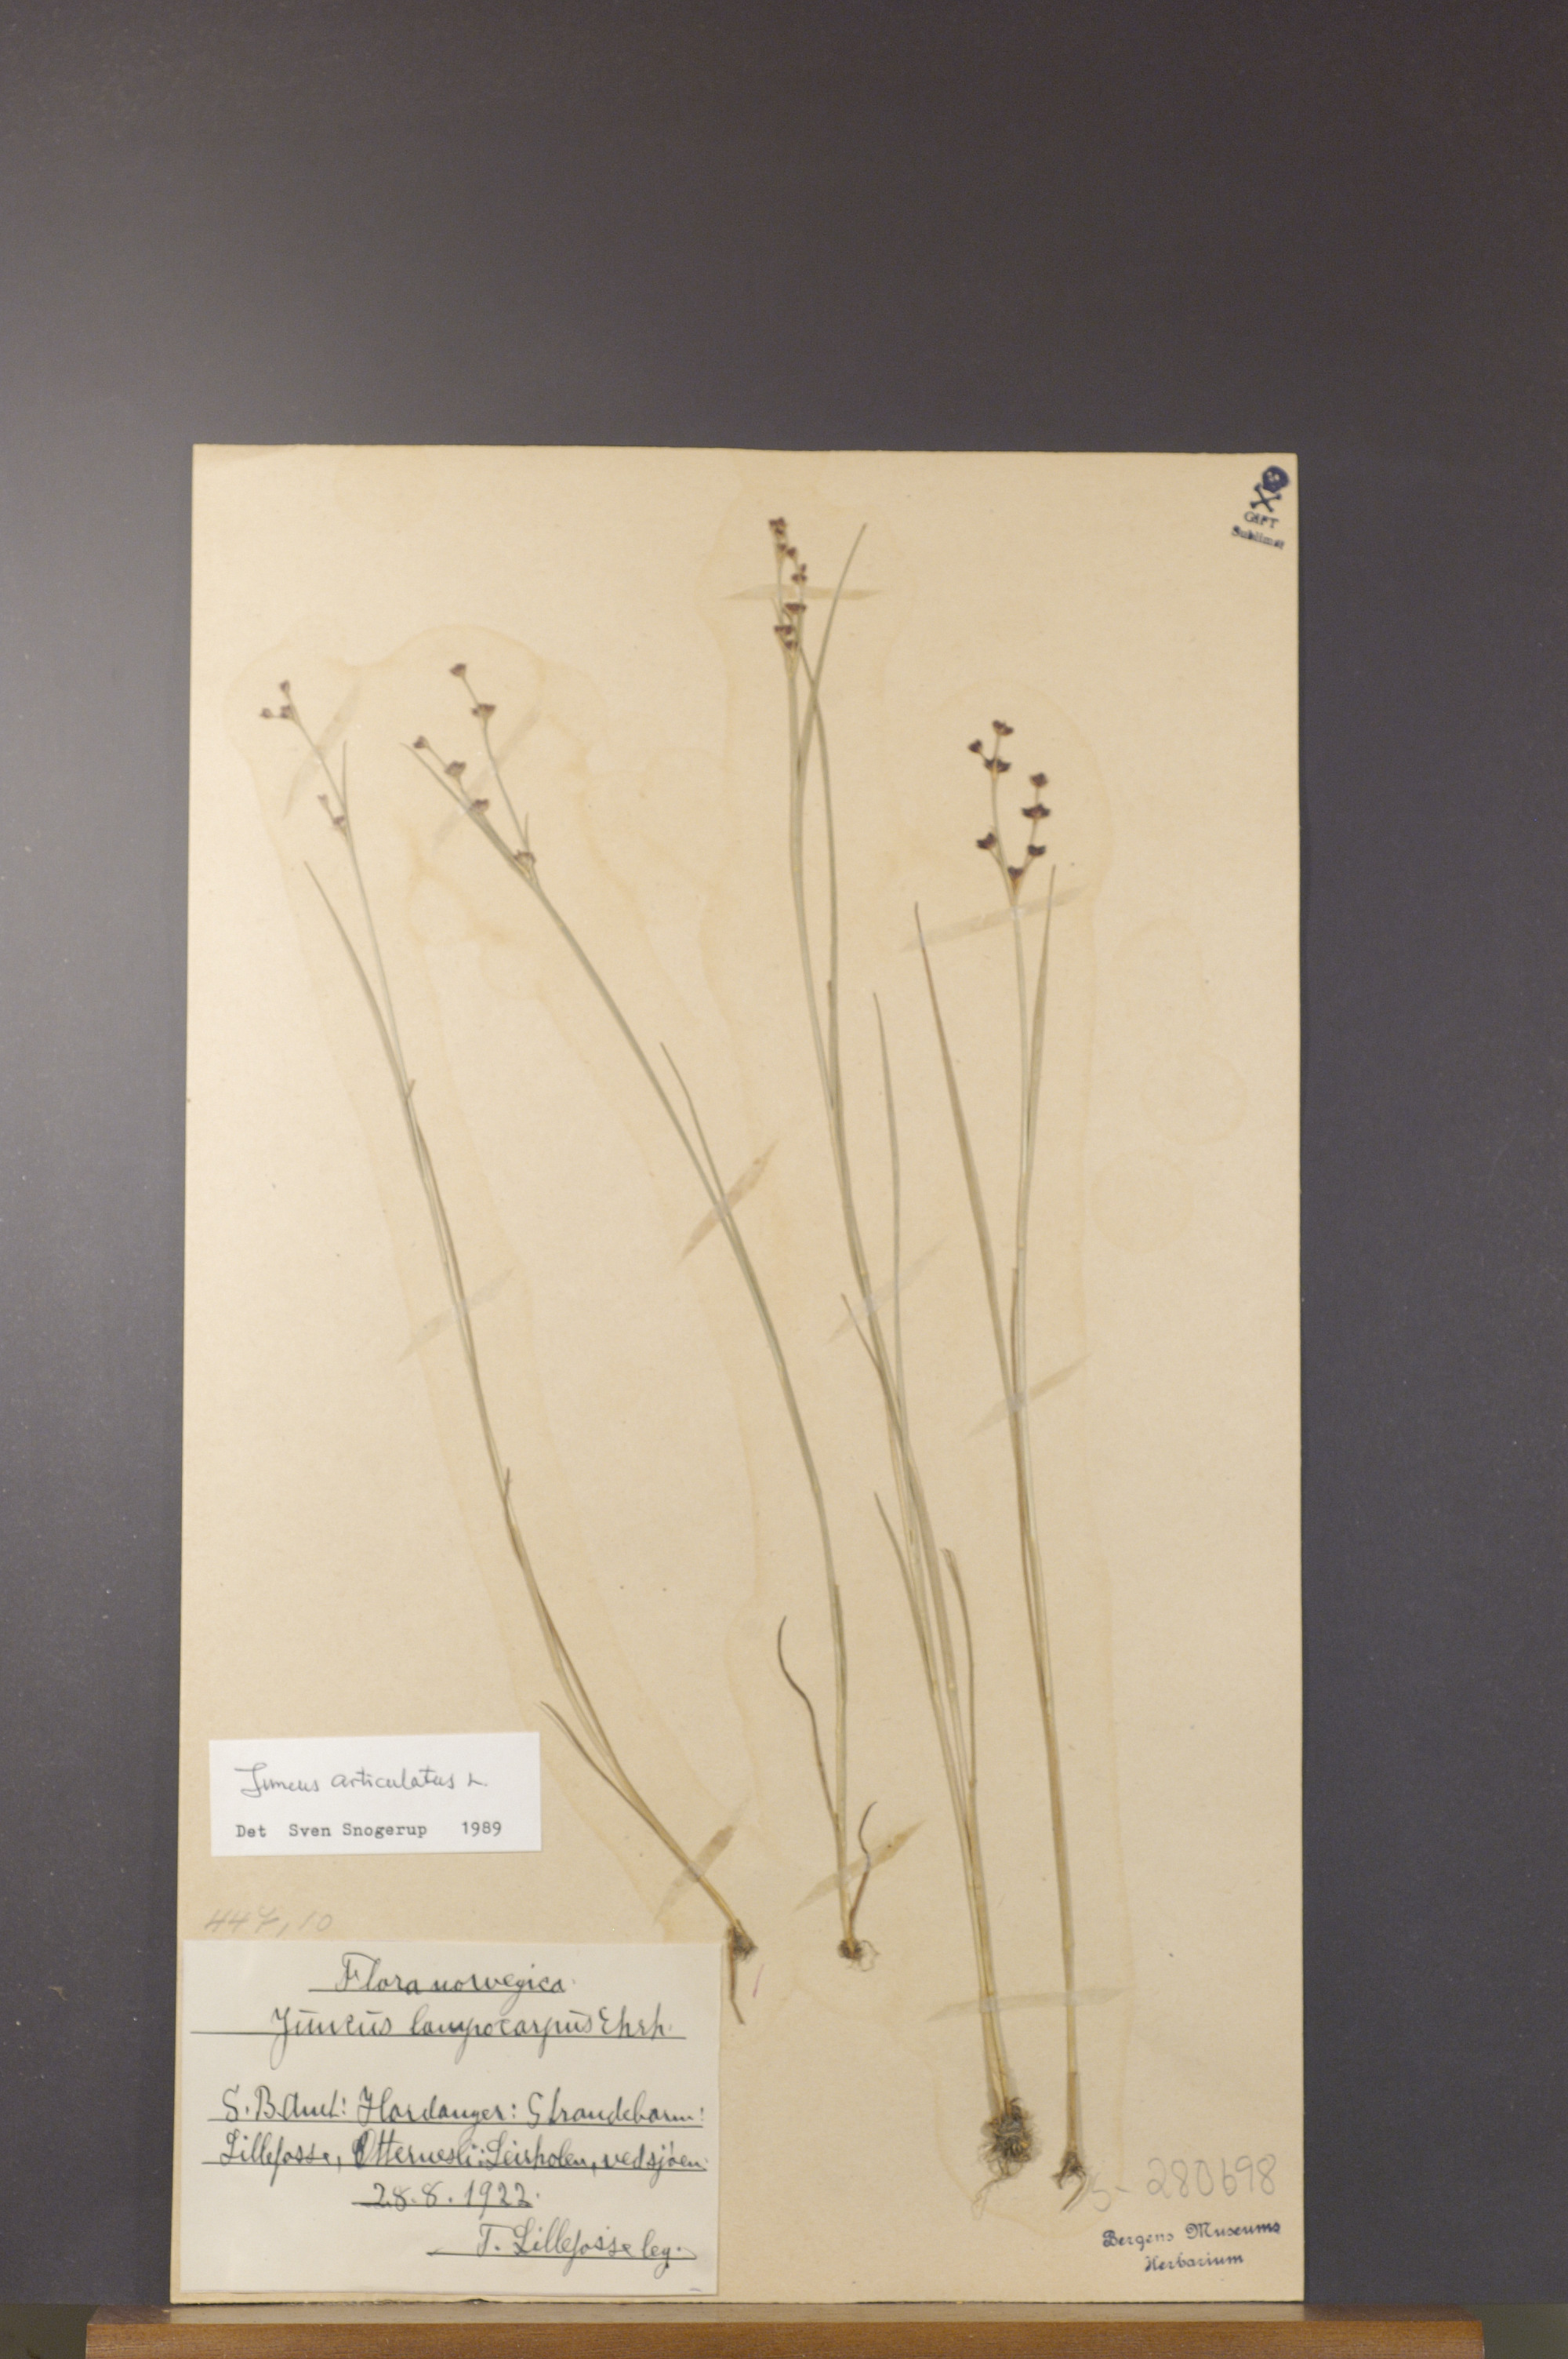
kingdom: Plantae
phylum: Tracheophyta
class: Liliopsida
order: Poales
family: Juncaceae
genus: Juncus
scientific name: Juncus articulatus
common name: Jointed rush
